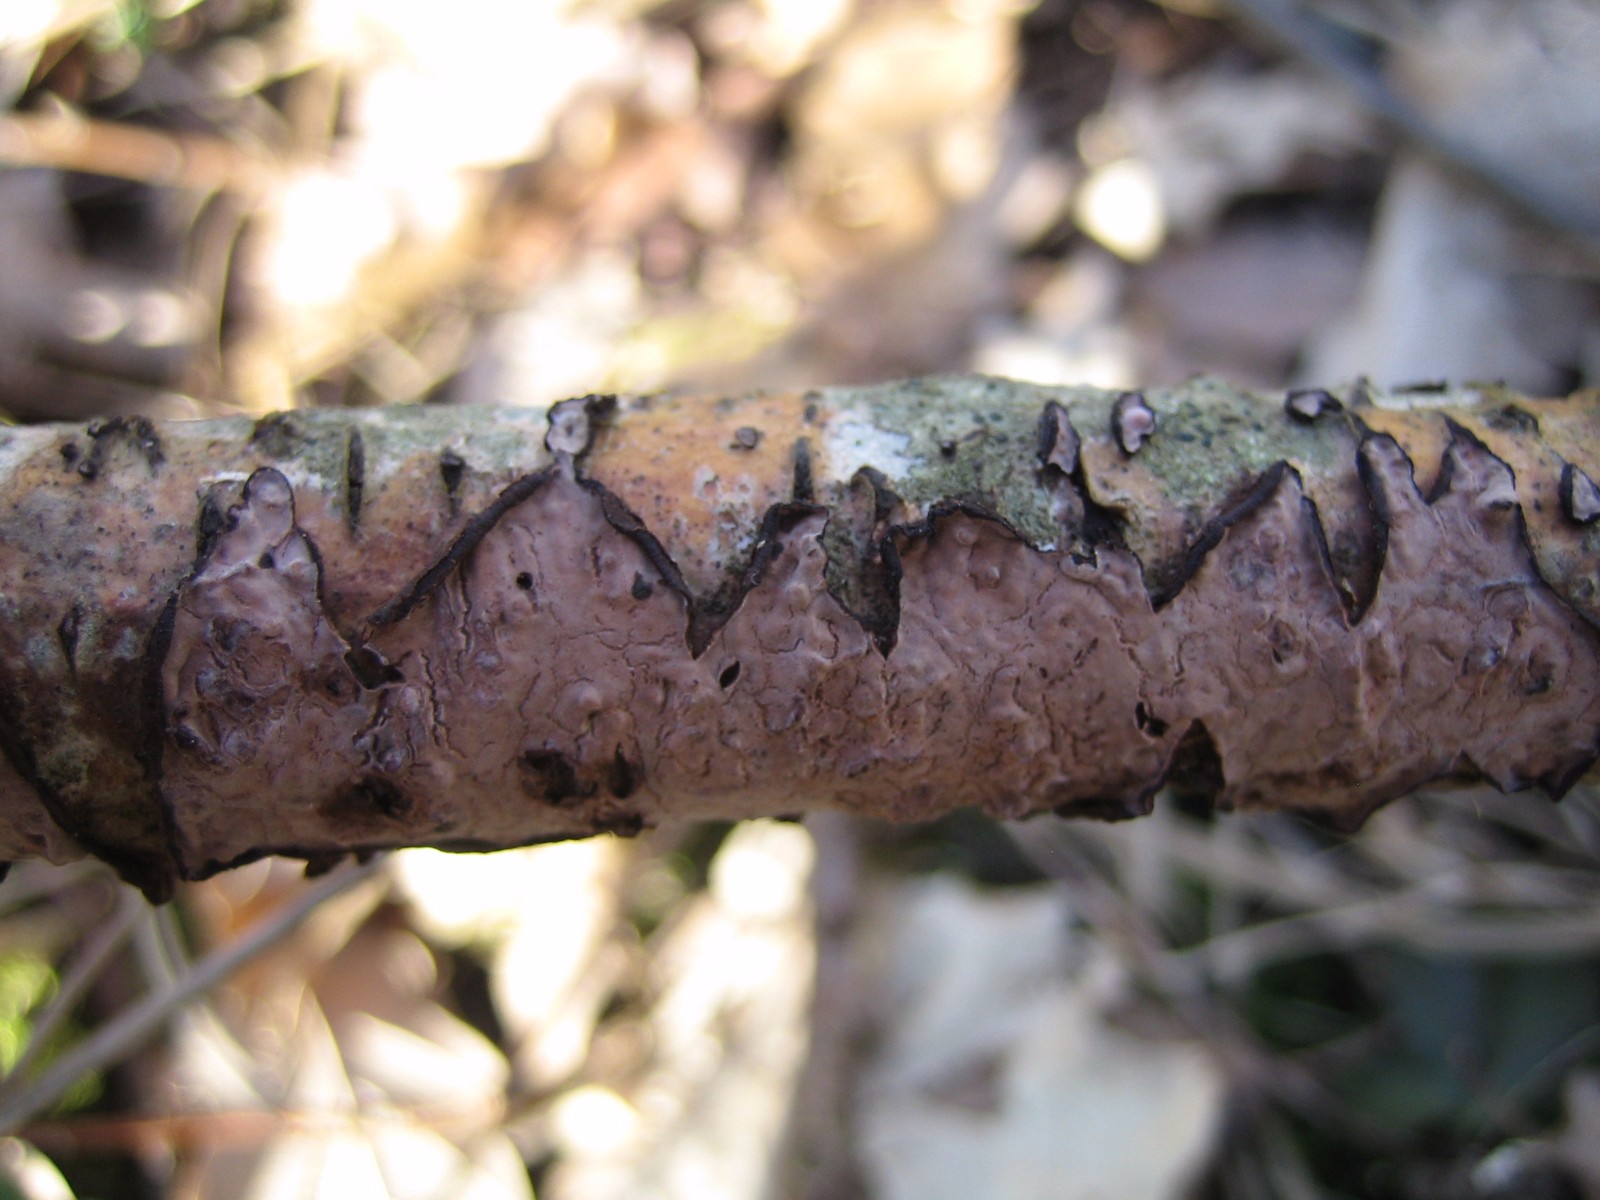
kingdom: Fungi
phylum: Basidiomycota
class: Agaricomycetes
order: Russulales
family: Peniophoraceae
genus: Peniophora
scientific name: Peniophora quercina
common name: ege-voksskind
